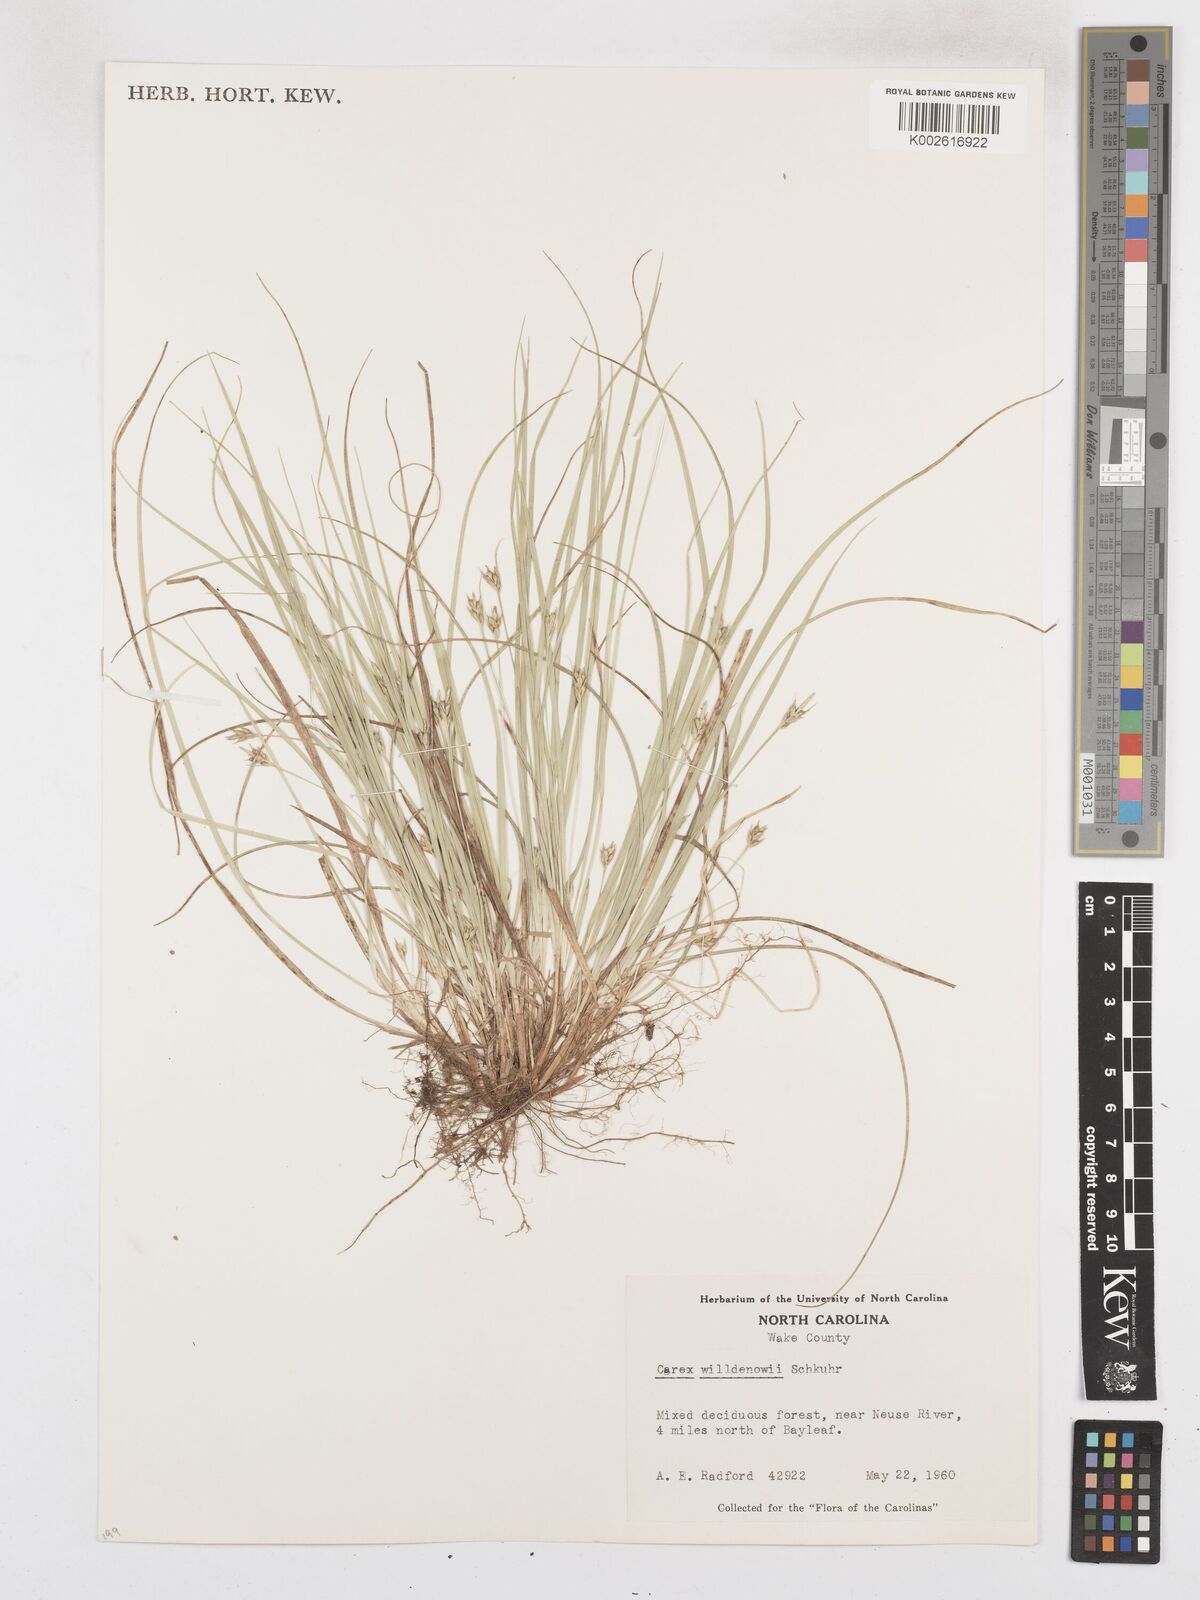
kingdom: Plantae
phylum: Tracheophyta
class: Liliopsida
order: Poales
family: Cyperaceae
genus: Carex
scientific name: Carex willdenowii
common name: Willdenow's sedge
